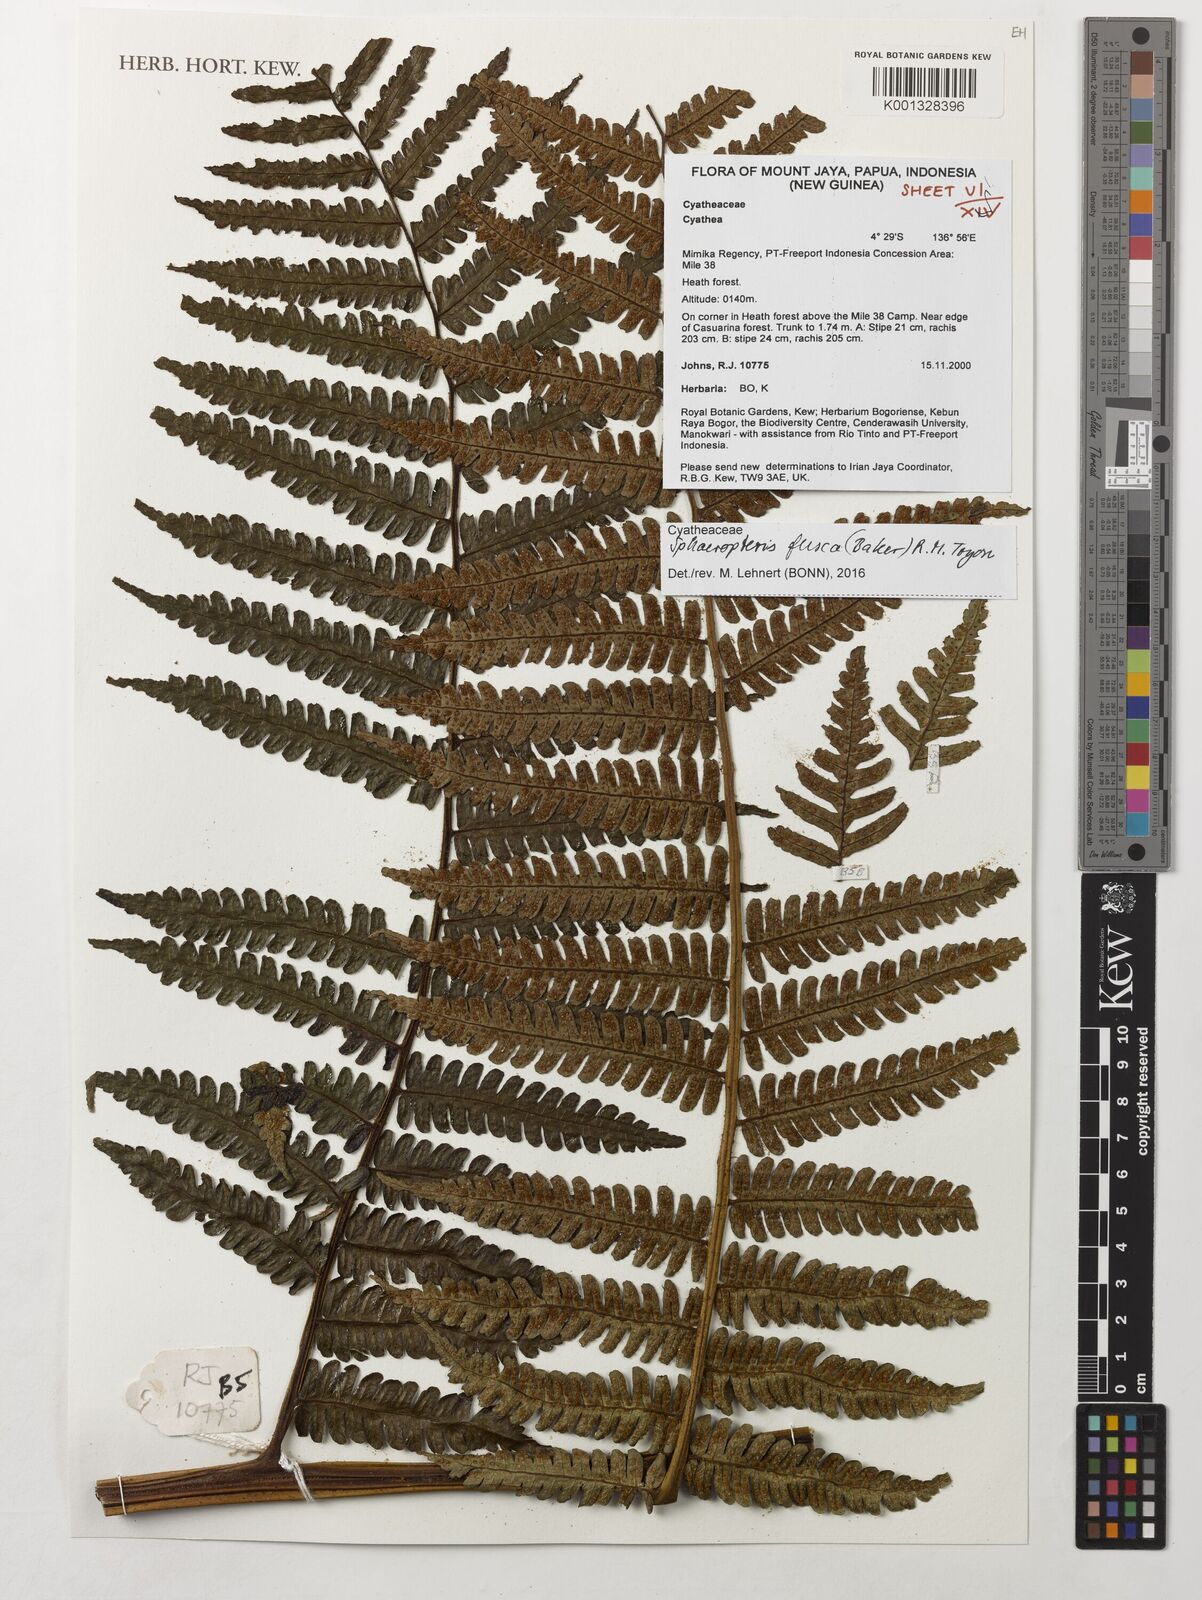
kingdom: Plantae
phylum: Tracheophyta
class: Polypodiopsida
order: Cyatheales
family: Cyatheaceae
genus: Sphaeropteris
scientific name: Sphaeropteris fusca
